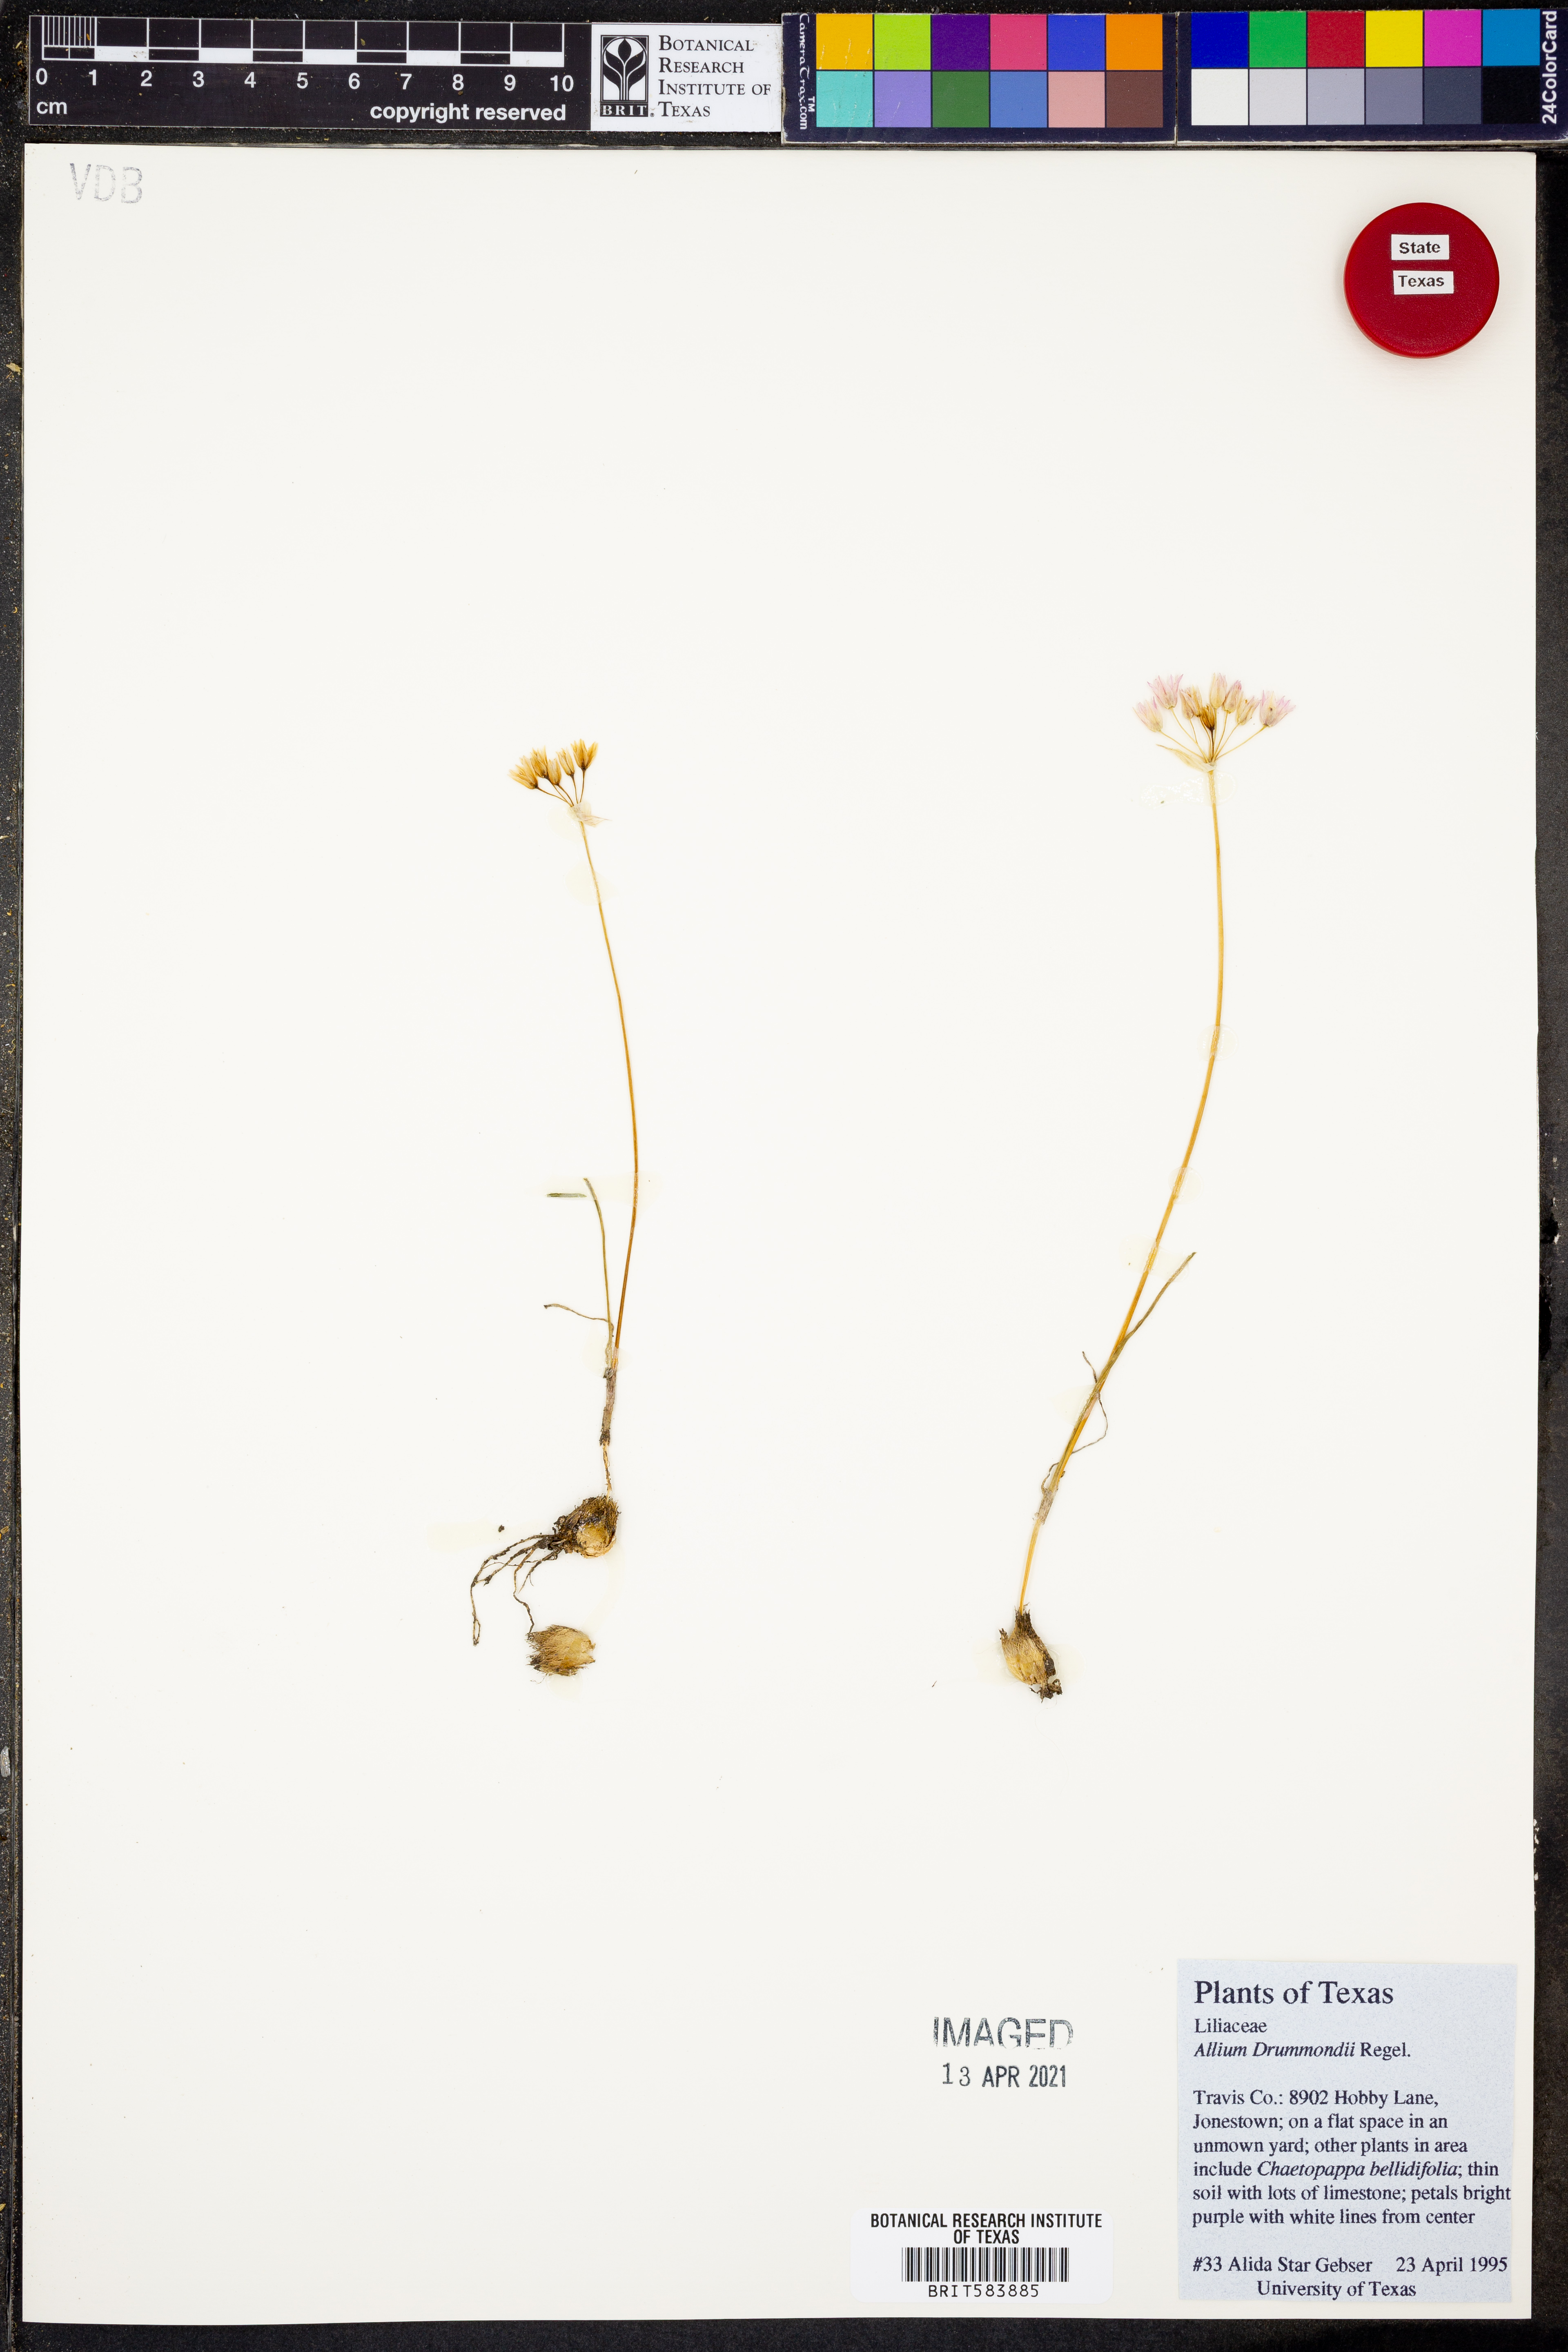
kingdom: Plantae
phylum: Tracheophyta
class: Liliopsida
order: Asparagales
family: Amaryllidaceae
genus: Allium
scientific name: Allium drummondii
